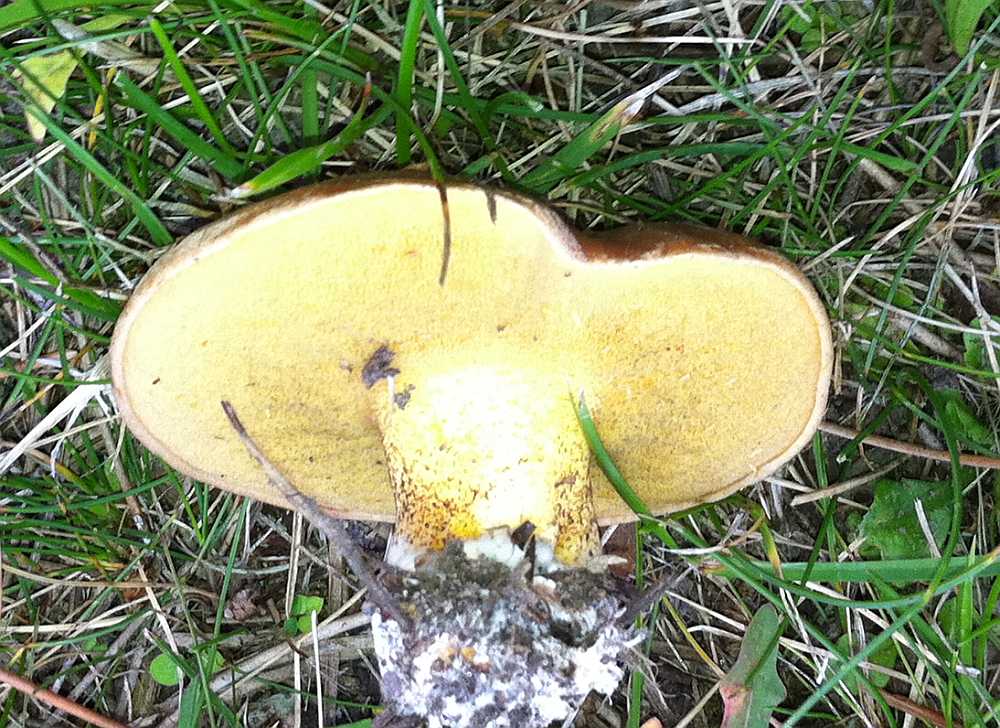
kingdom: Fungi
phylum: Basidiomycota
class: Agaricomycetes
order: Boletales
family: Suillaceae
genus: Suillus
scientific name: Suillus granulatus
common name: kornet slimrørhat
